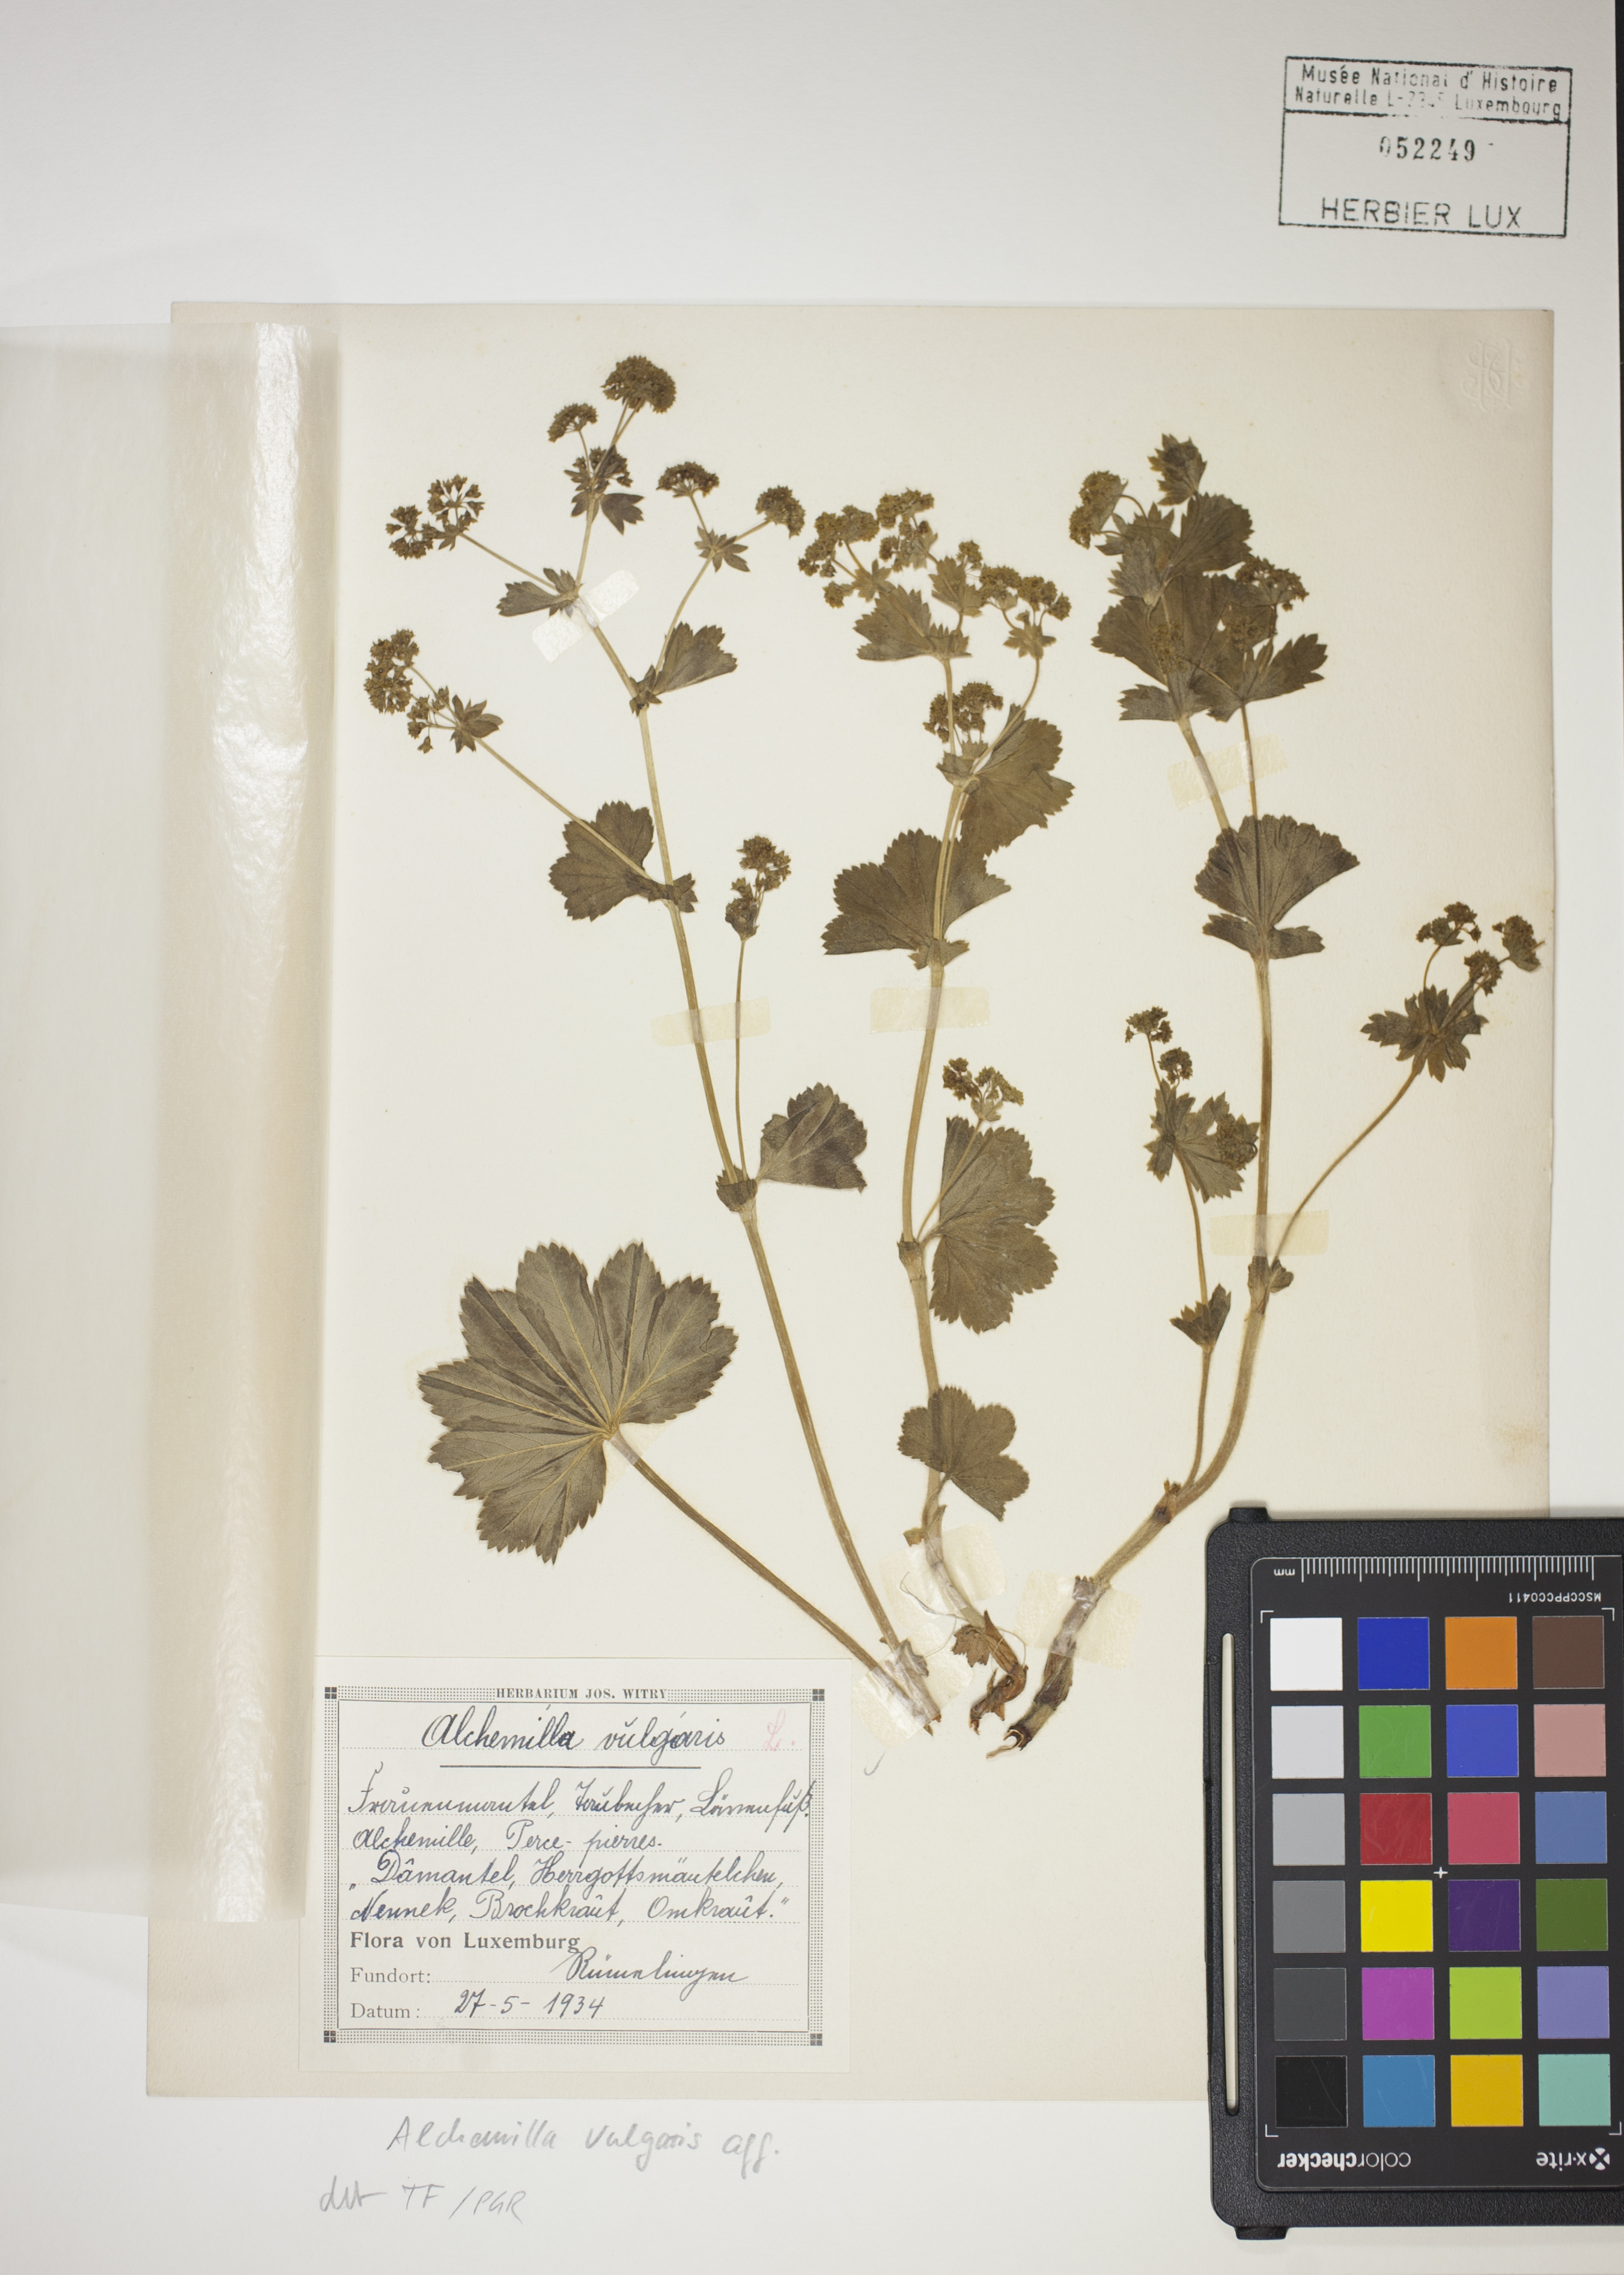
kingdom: Plantae
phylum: Tracheophyta
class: Magnoliopsida
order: Rosales
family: Rosaceae
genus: Alchemilla
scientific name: Alchemilla vulgaris
